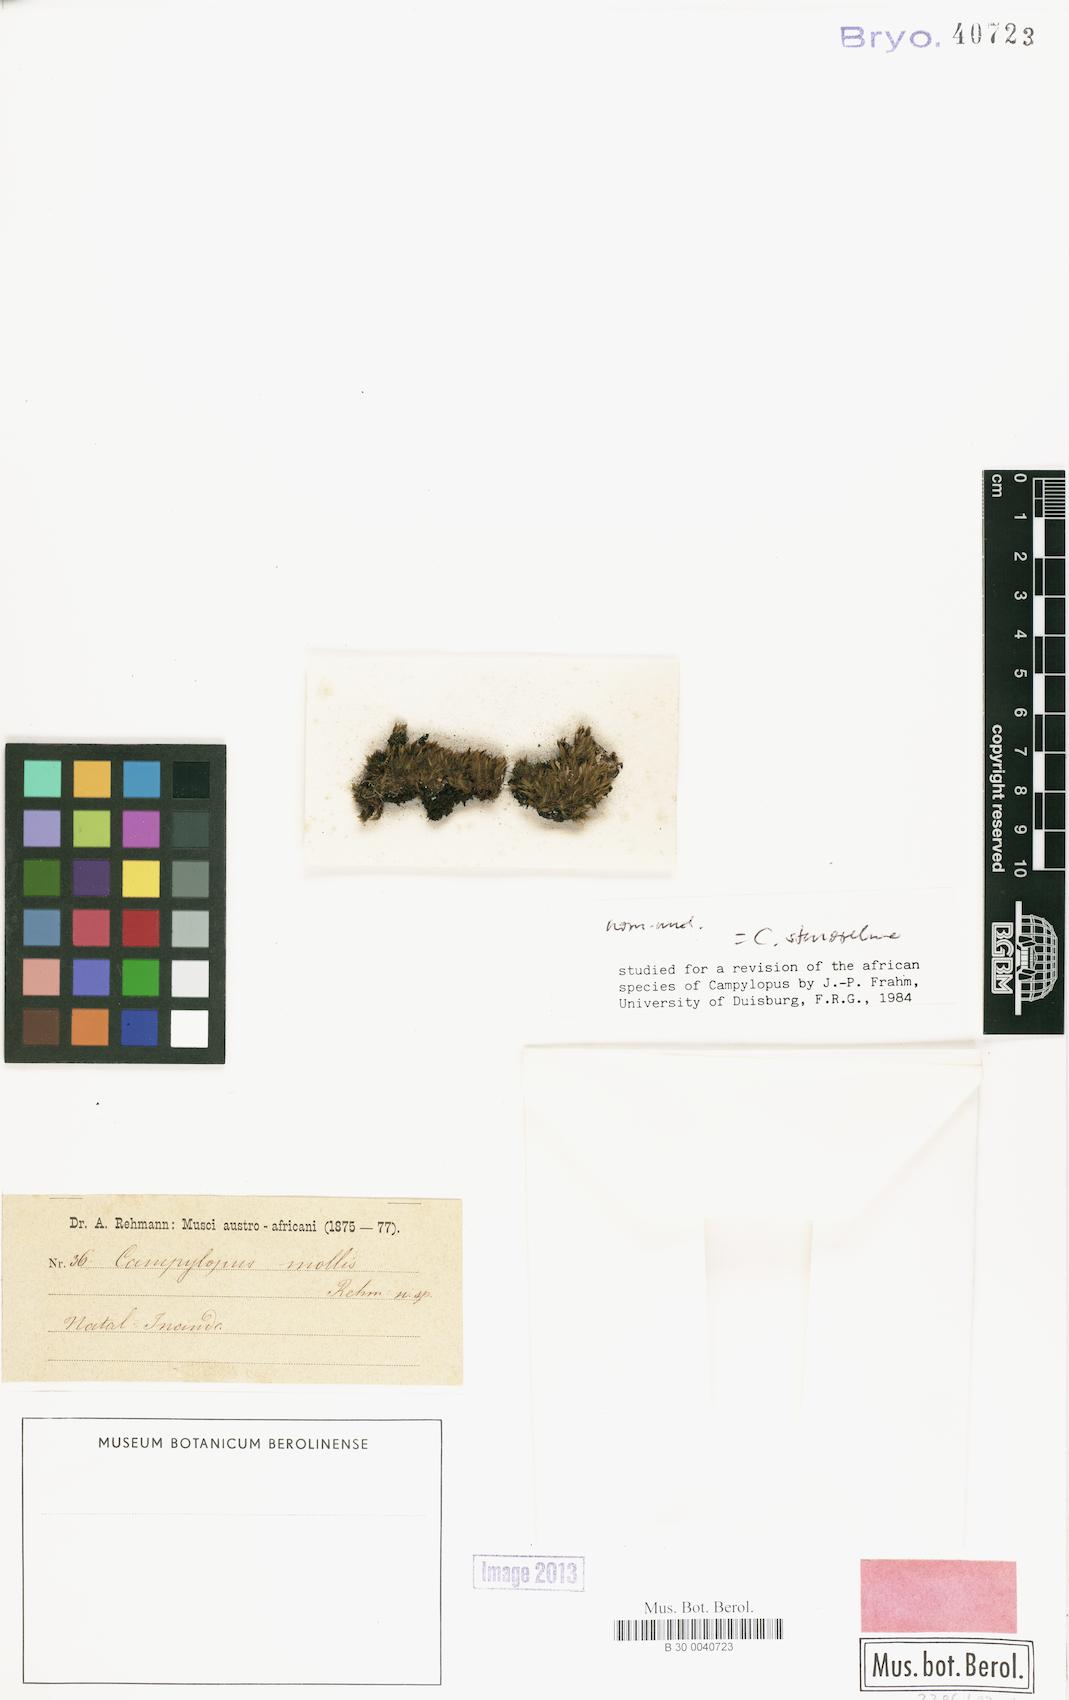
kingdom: Plantae
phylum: Bryophyta
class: Bryopsida
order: Dicranales
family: Leucobryaceae
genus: Campylopus
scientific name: Campylopus thwaitesii
